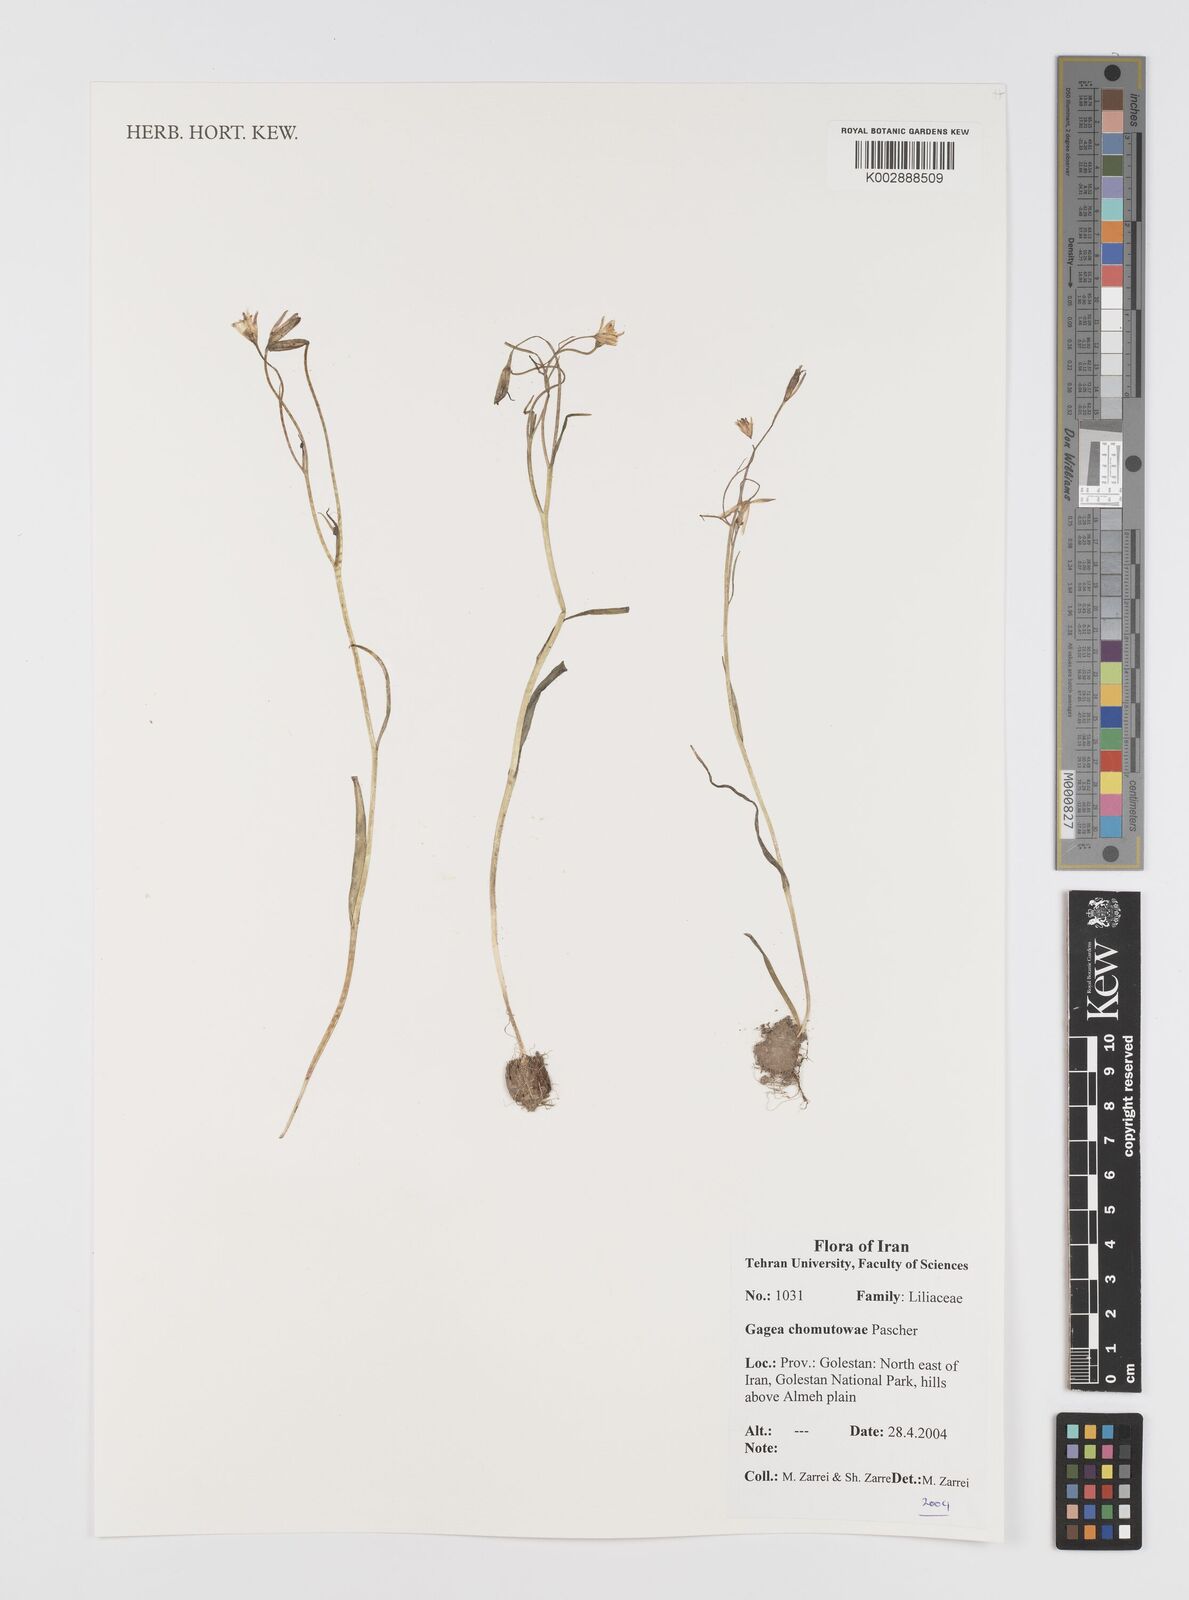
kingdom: Plantae
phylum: Tracheophyta
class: Liliopsida
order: Liliales
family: Liliaceae
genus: Gagea
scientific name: Gagea chomutovae
